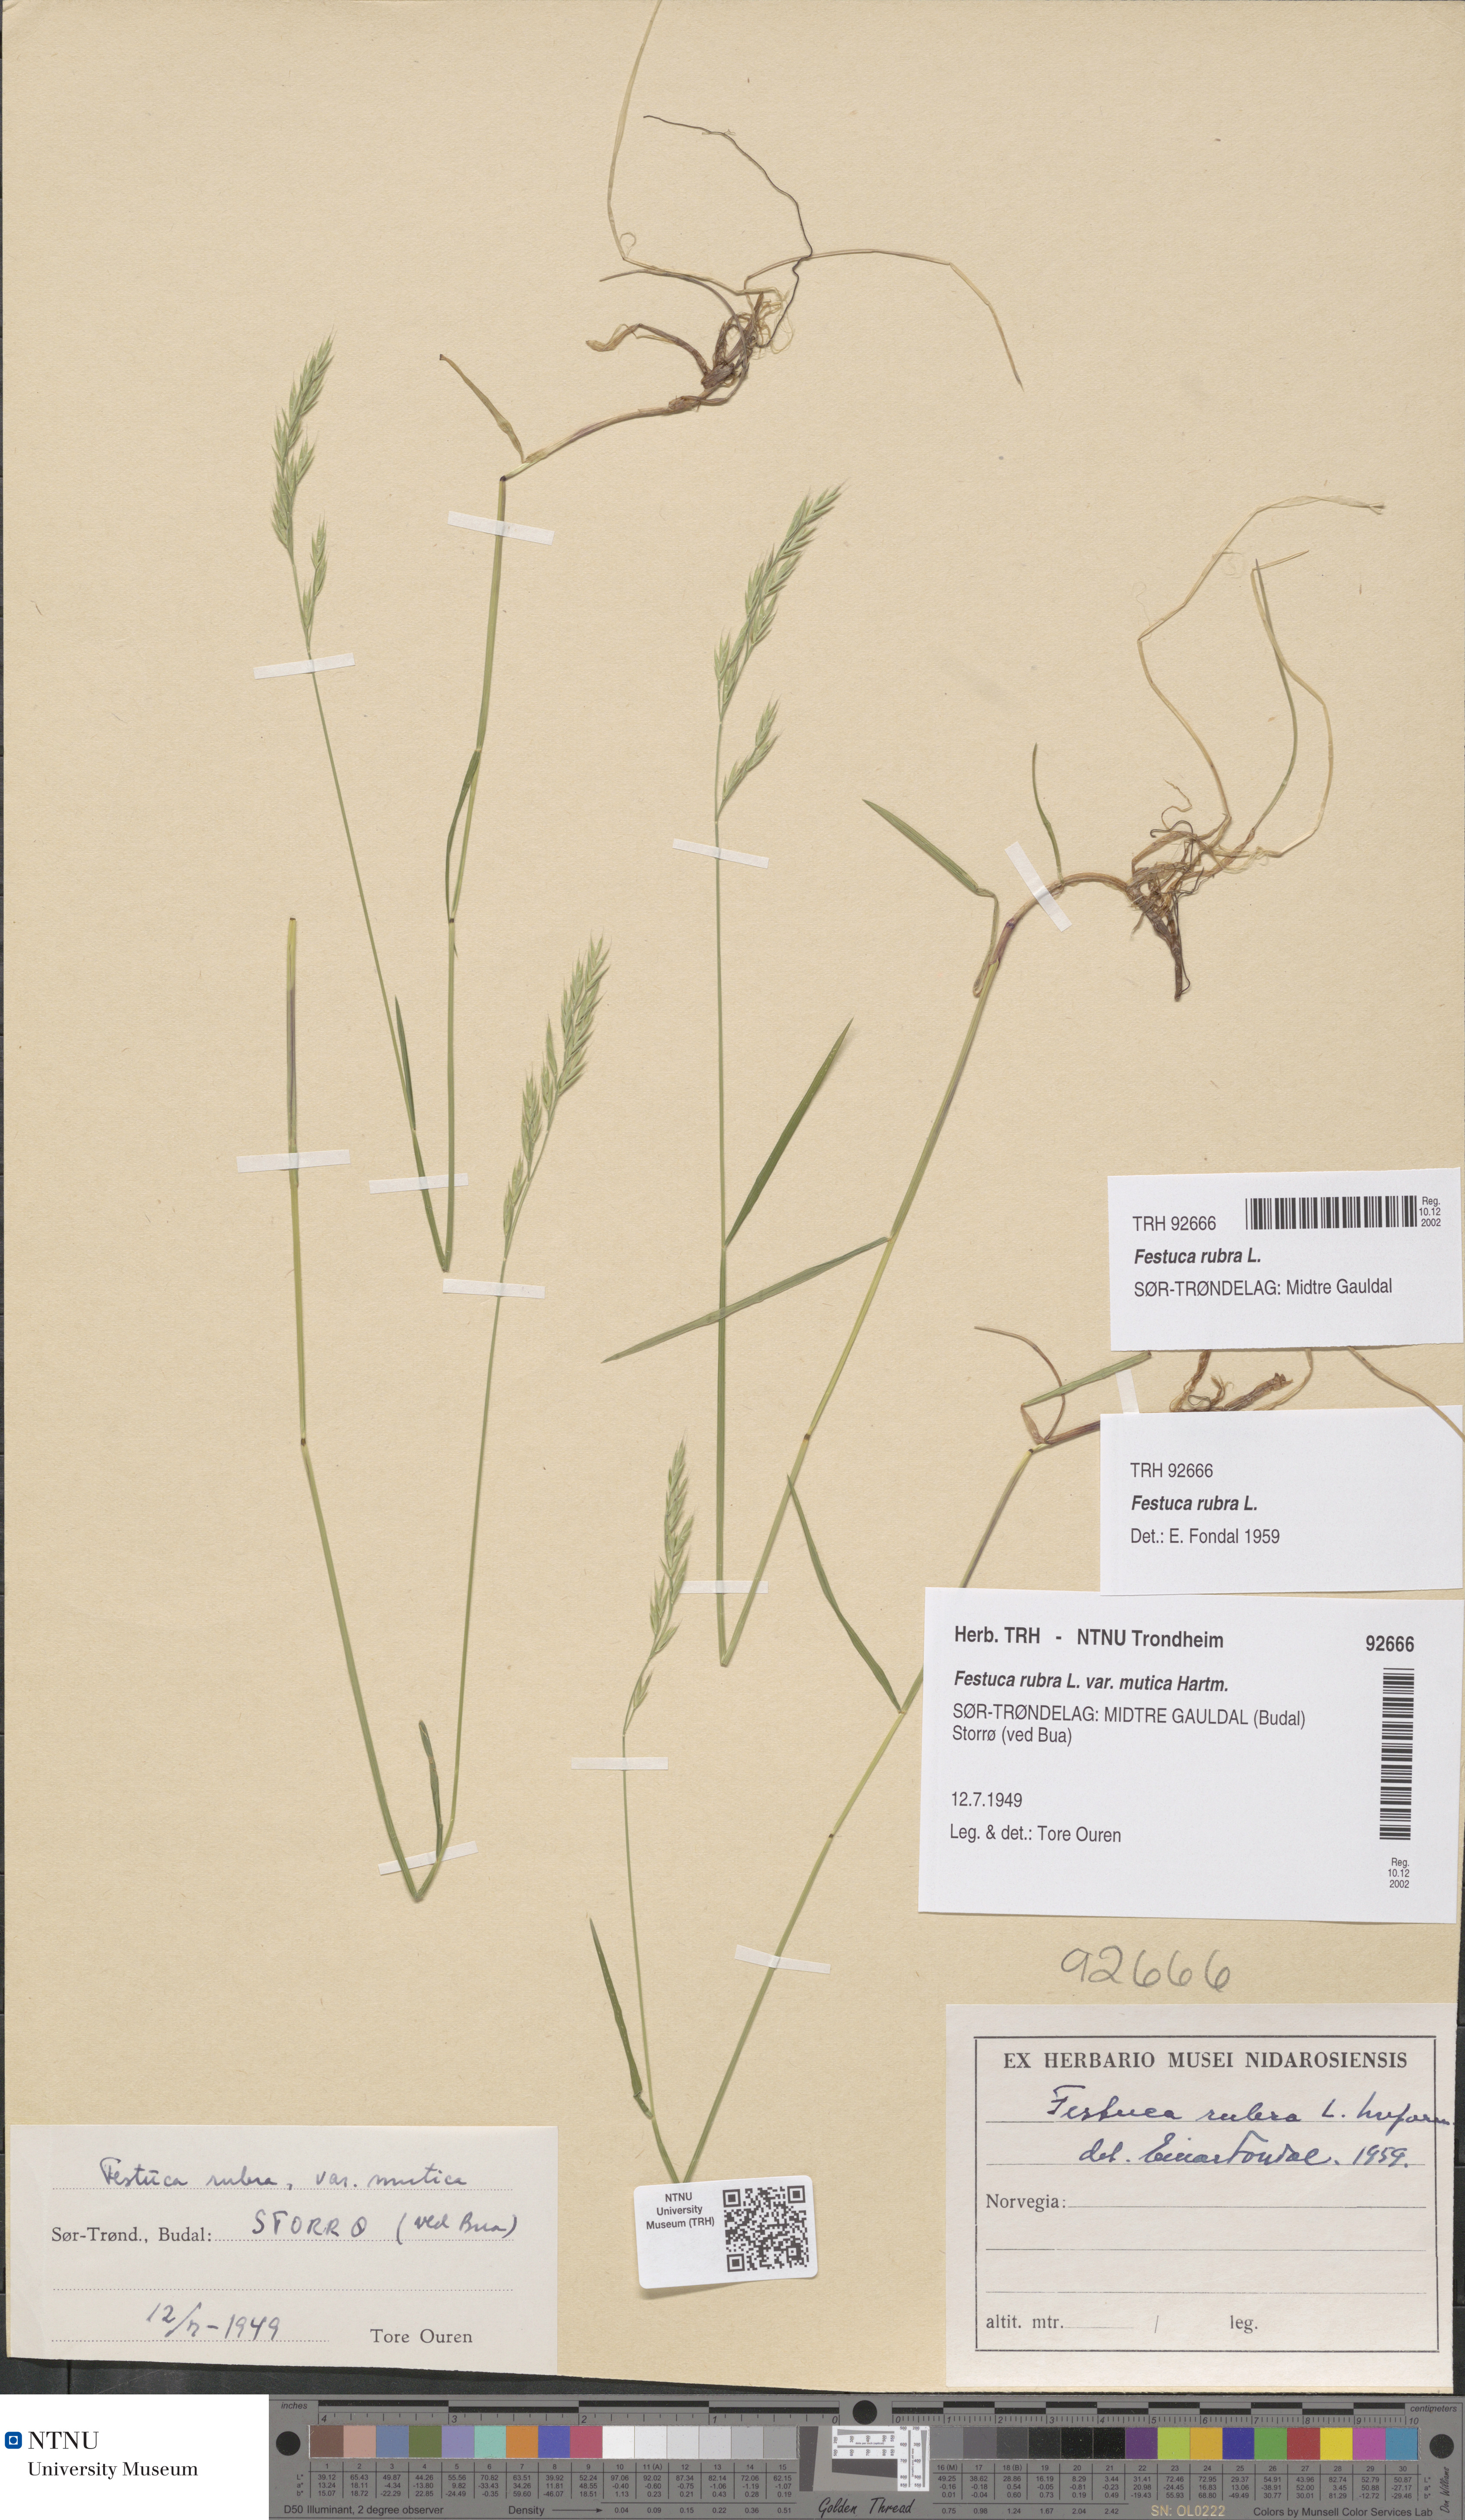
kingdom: Plantae
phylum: Tracheophyta
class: Liliopsida
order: Poales
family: Poaceae
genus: Festuca
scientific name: Festuca rubra
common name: Red fescue
